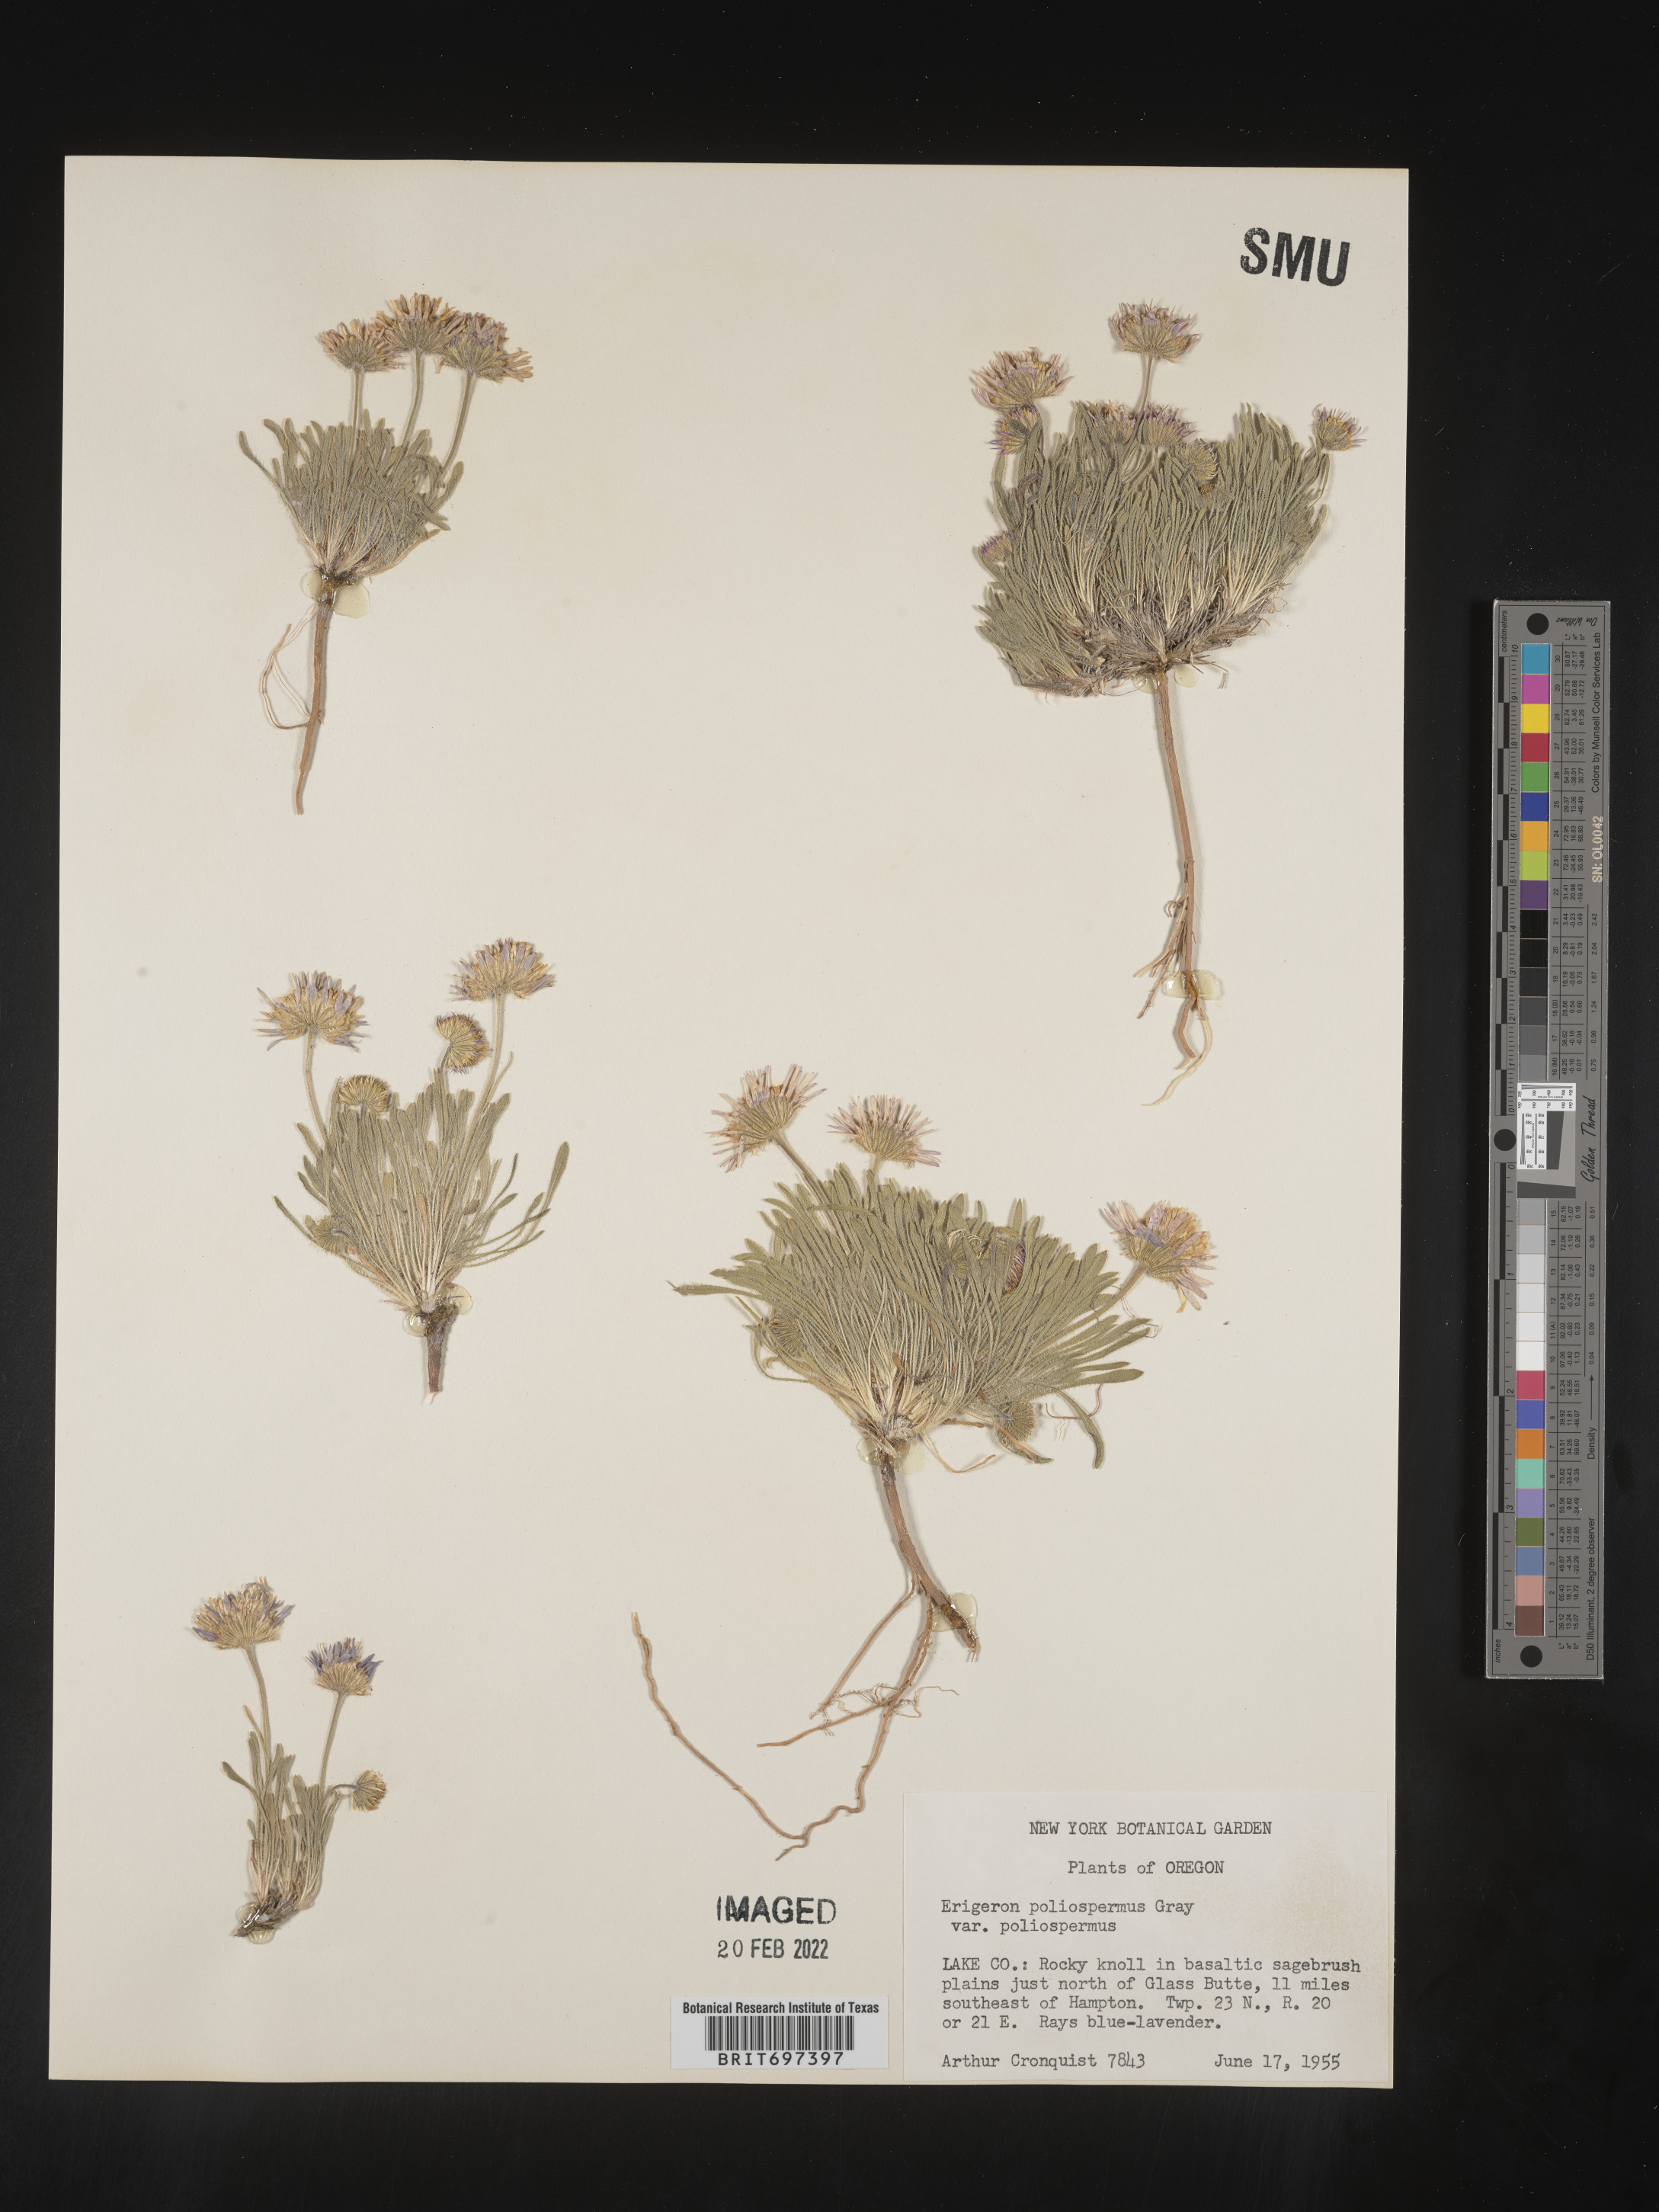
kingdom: Plantae
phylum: Tracheophyta
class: Magnoliopsida
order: Asterales
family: Asteraceae
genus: Erigeron
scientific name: Erigeron poliospermus
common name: Cushion fleabane
